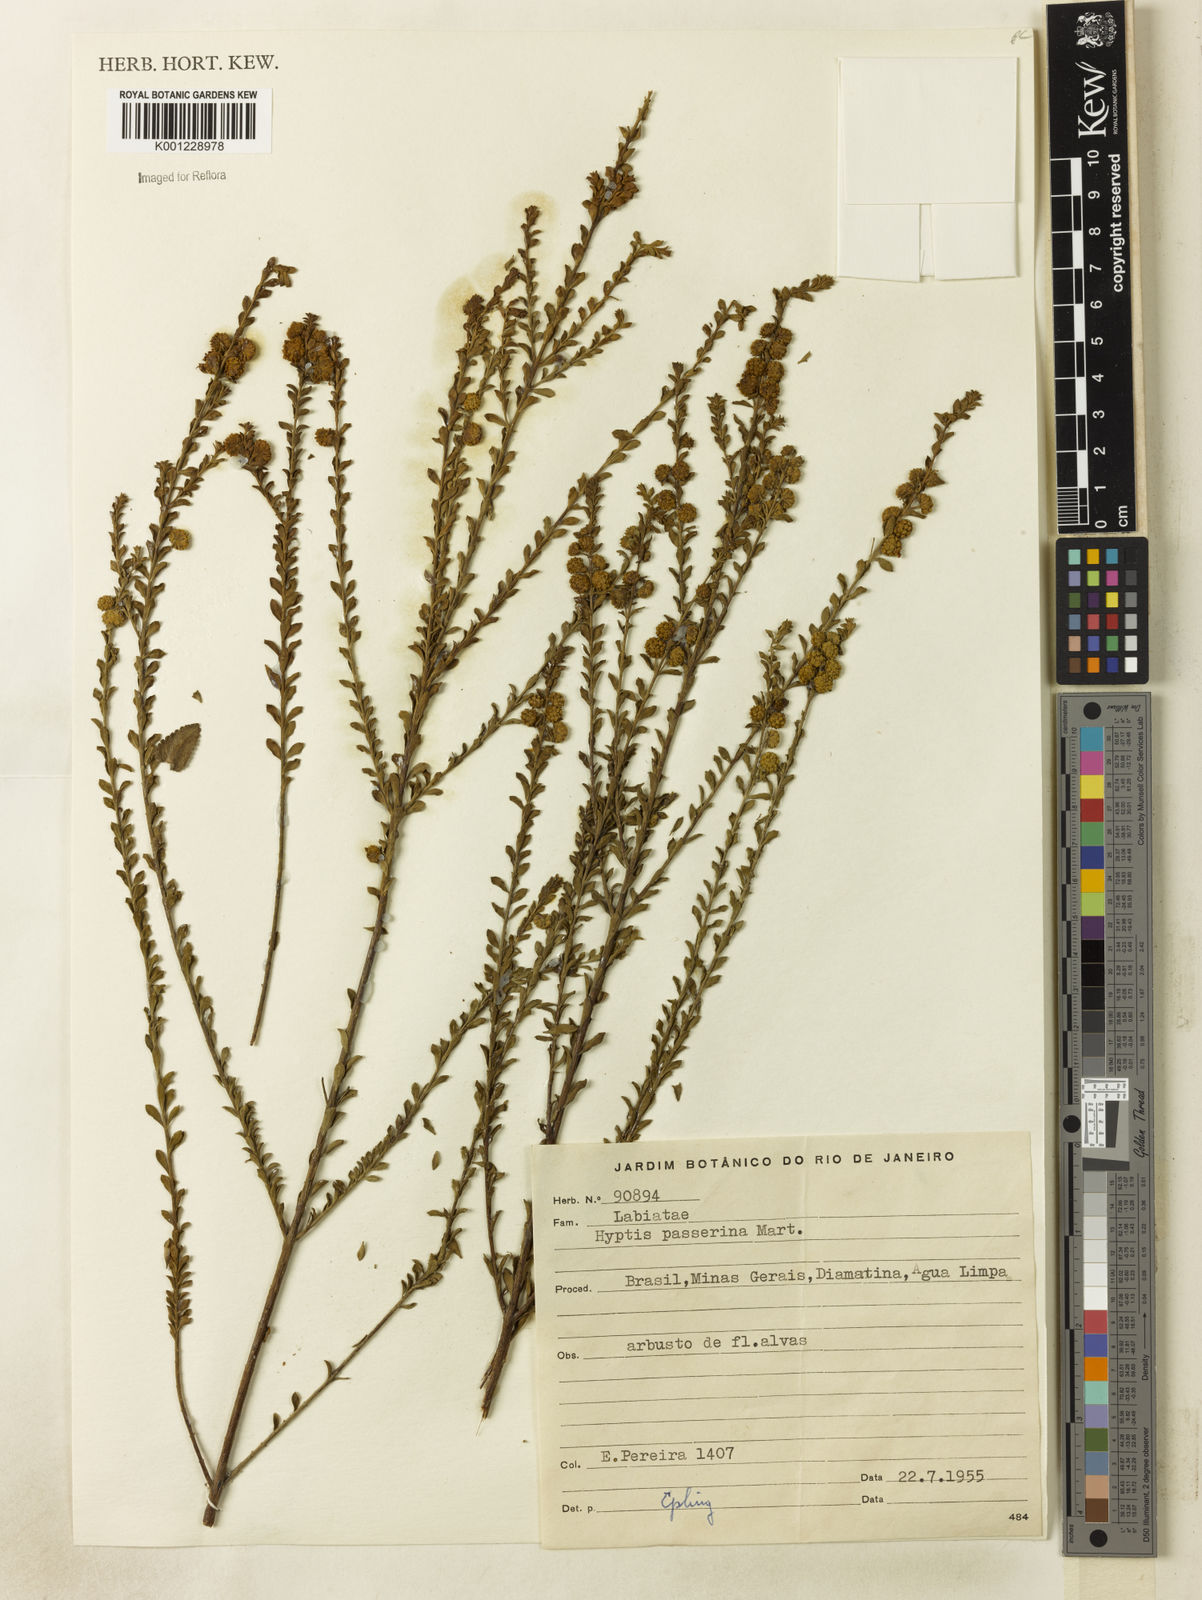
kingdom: Plantae
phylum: Tracheophyta
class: Magnoliopsida
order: Lamiales
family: Lamiaceae
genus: Hyptis
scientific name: Hyptis passerina
